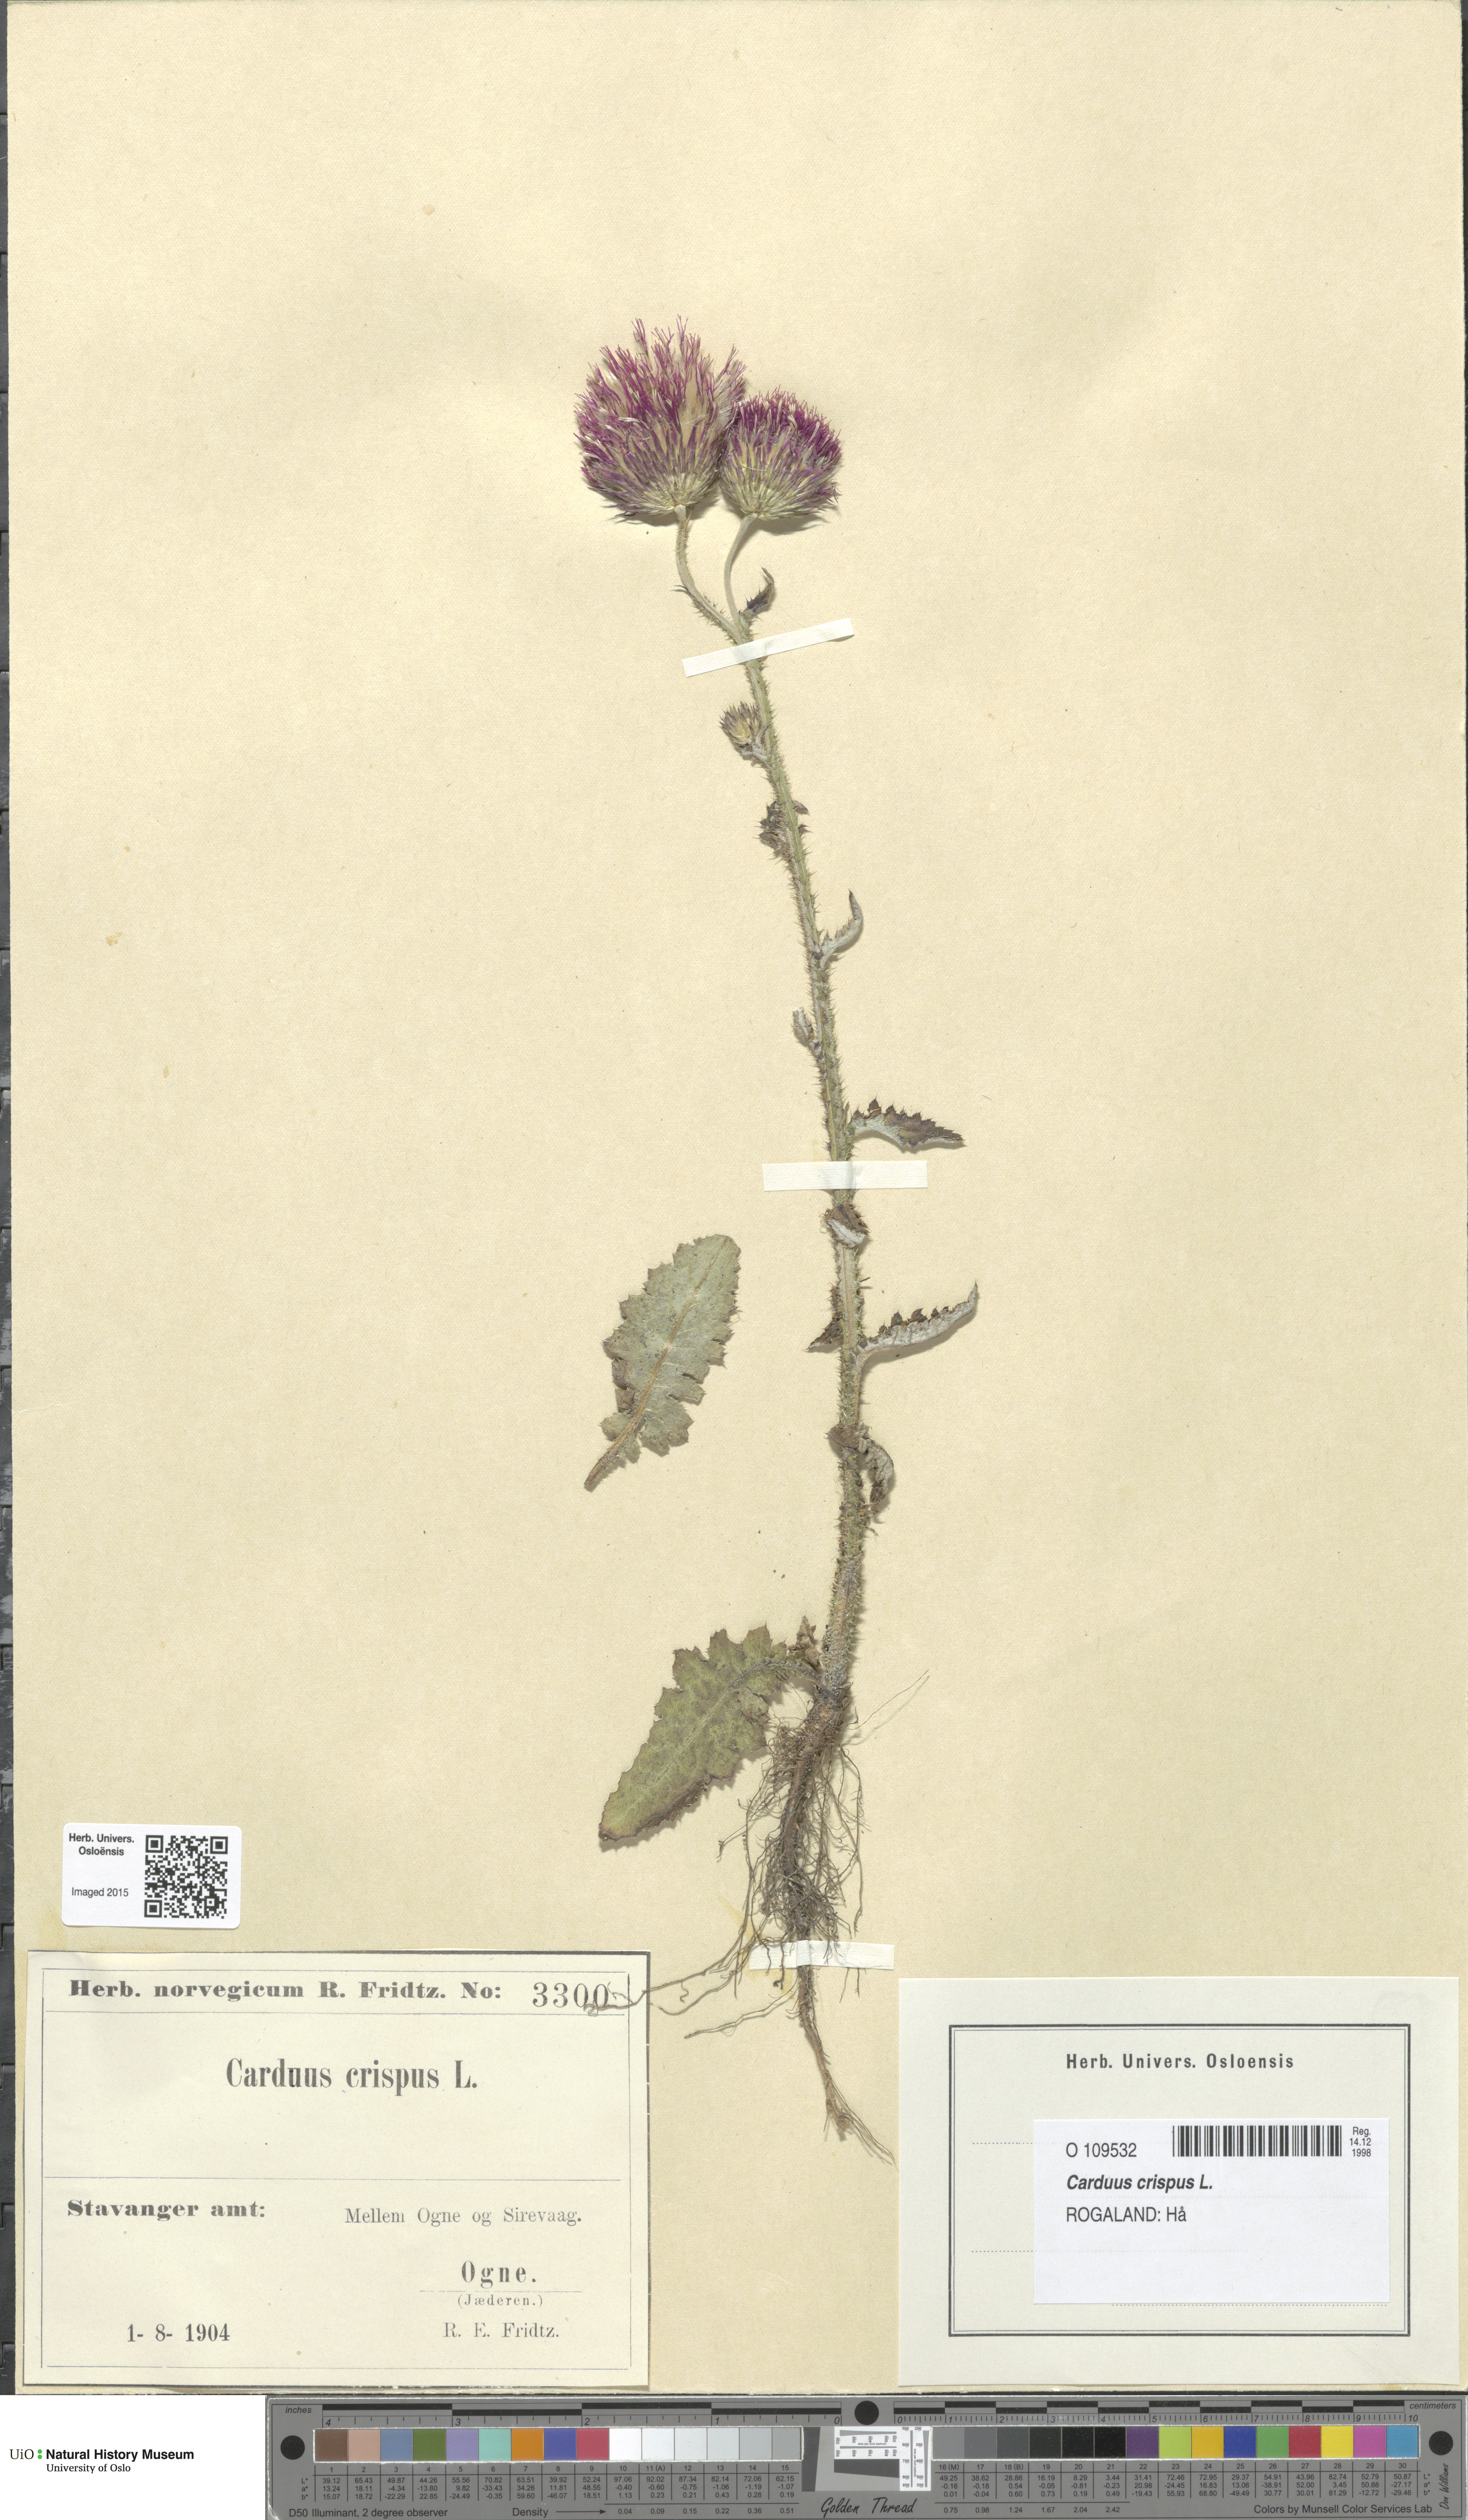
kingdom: Plantae
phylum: Tracheophyta
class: Magnoliopsida
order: Asterales
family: Asteraceae
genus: Carduus
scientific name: Carduus crispus
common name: Welted thistle
